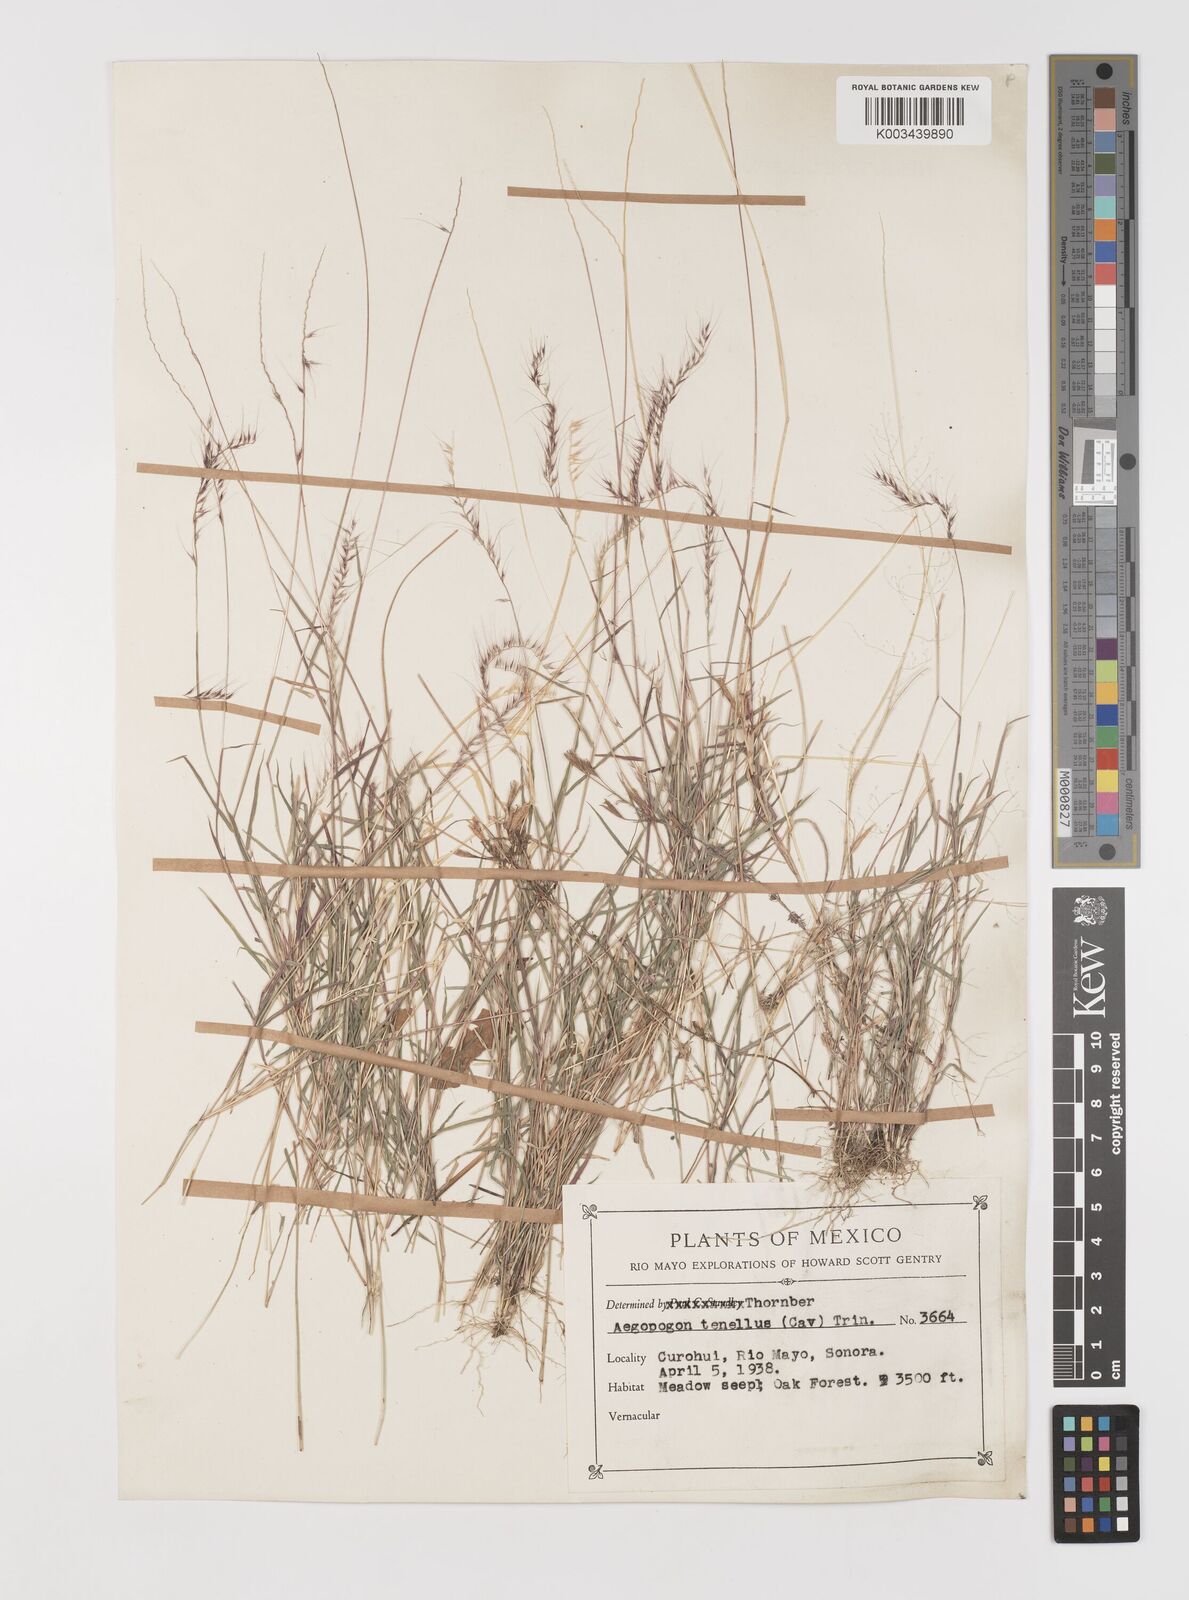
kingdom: Plantae
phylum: Tracheophyta
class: Liliopsida
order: Poales
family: Poaceae
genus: Muhlenbergia
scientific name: Muhlenbergia cenchroides
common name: Relaxgrass
